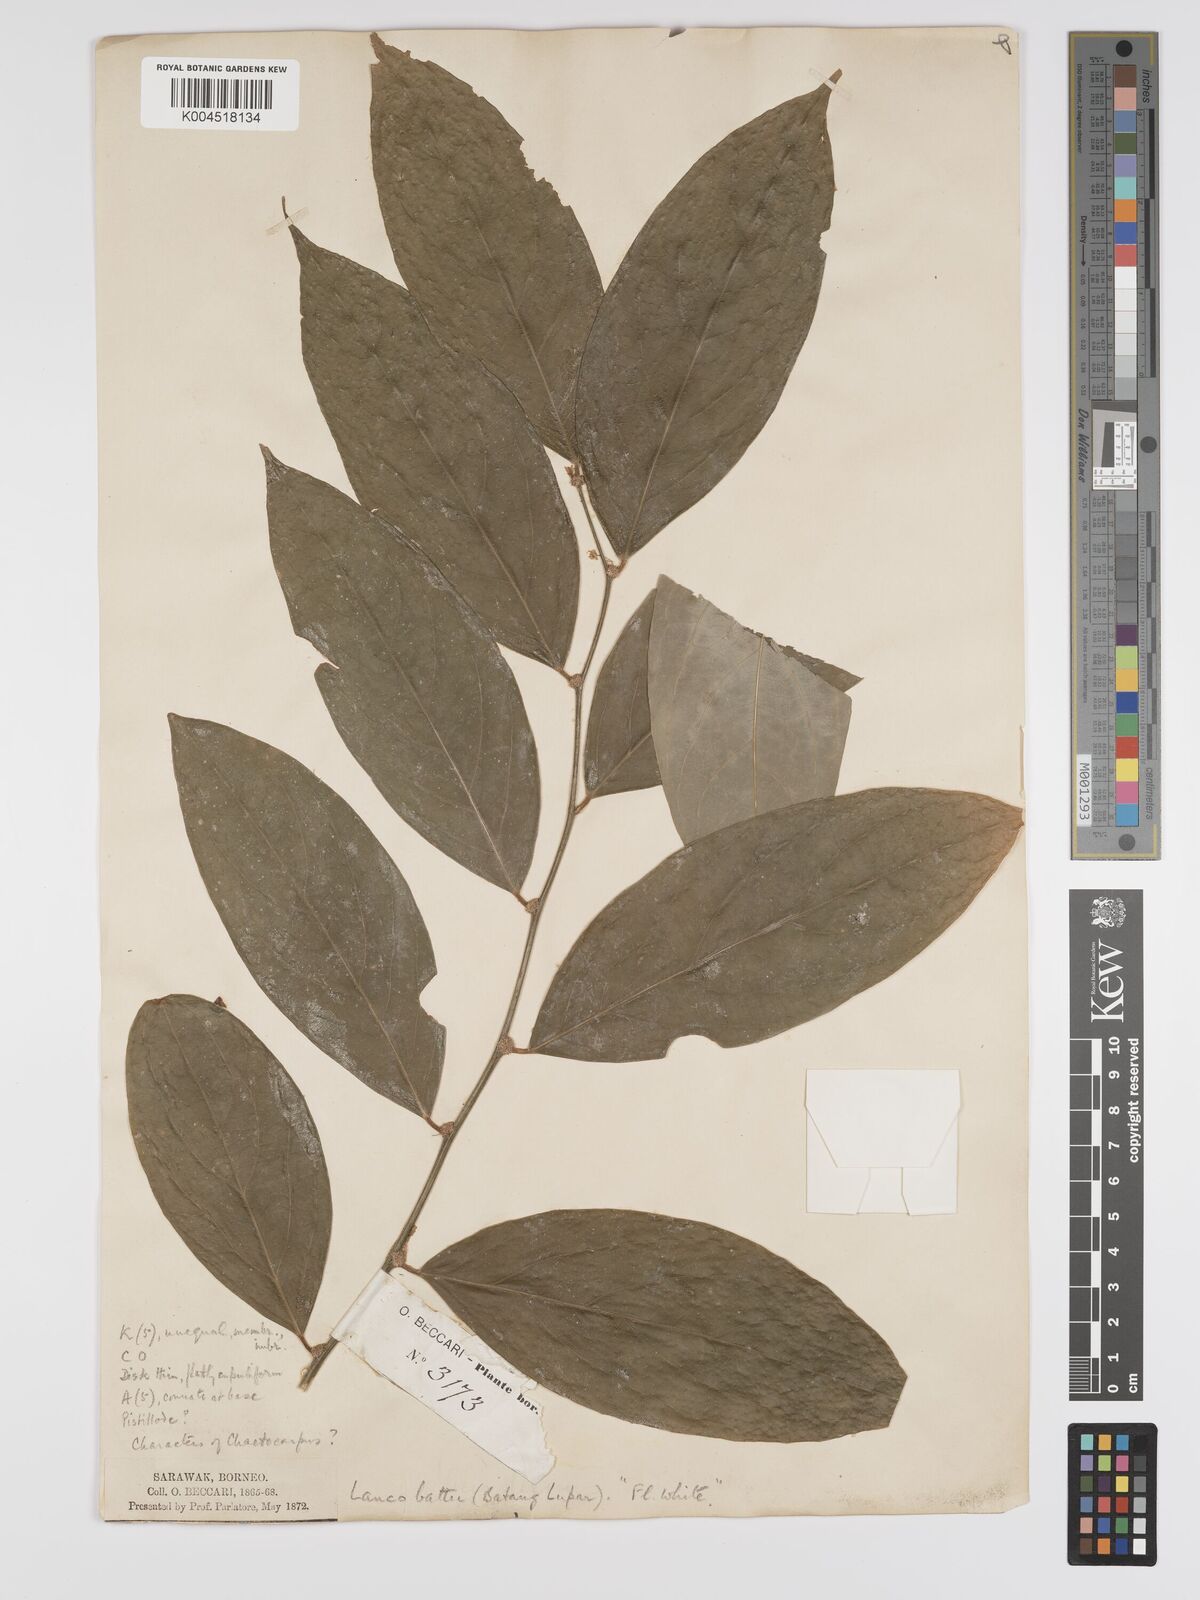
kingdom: Plantae
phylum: Tracheophyta
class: Magnoliopsida
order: Malpighiales
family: Phyllanthaceae
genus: Phyllanthus
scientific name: Phyllanthus
